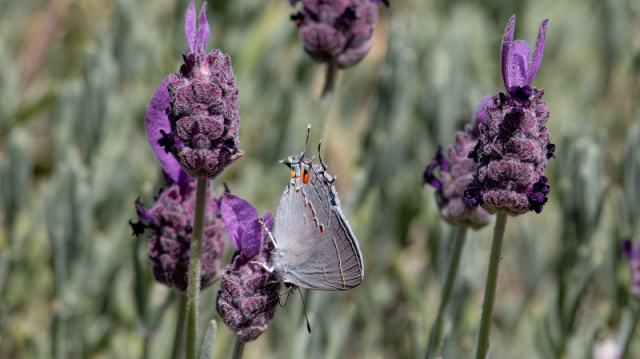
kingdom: Animalia
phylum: Arthropoda
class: Insecta
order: Lepidoptera
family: Lycaenidae
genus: Strymon
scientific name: Strymon melinus
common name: Gray Hairstreak
